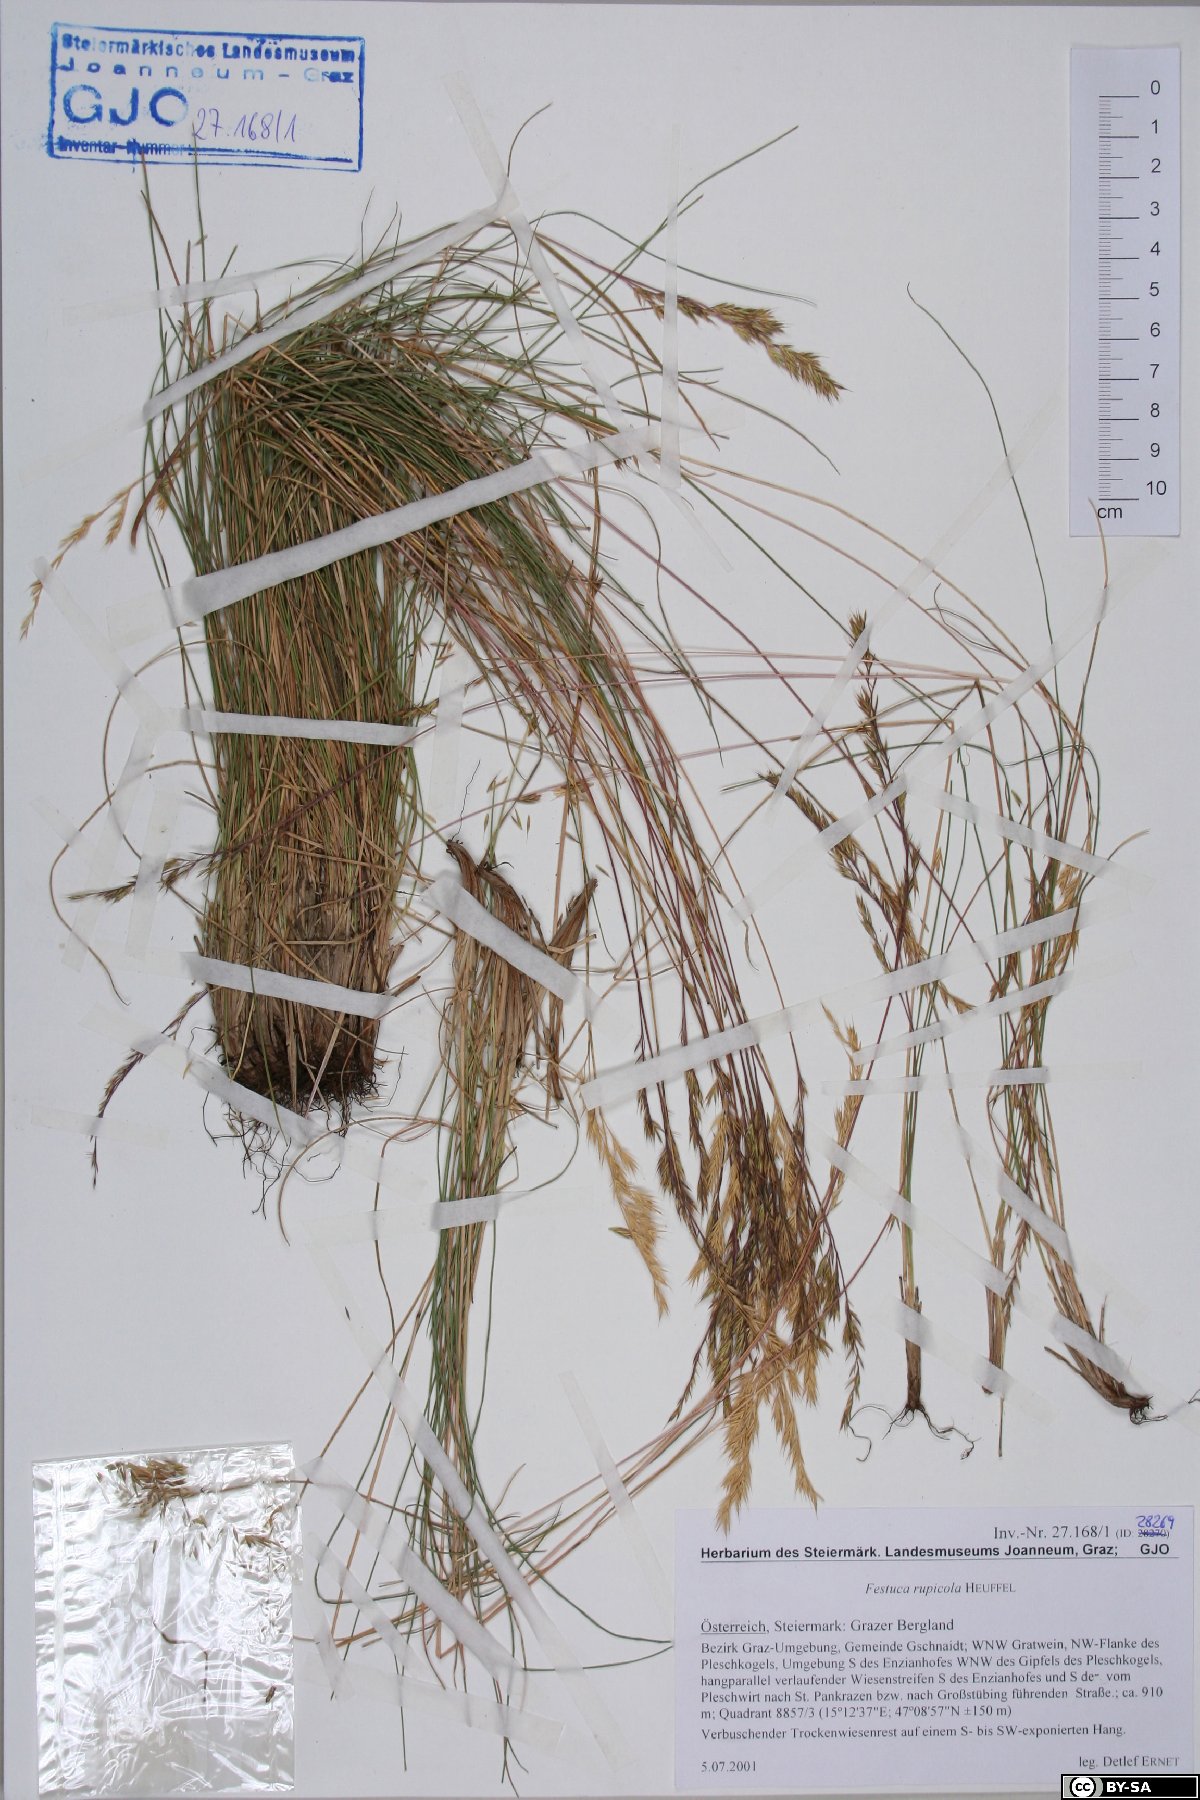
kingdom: Plantae
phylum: Tracheophyta
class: Liliopsida
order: Poales
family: Poaceae
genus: Festuca
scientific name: Festuca rupicola
